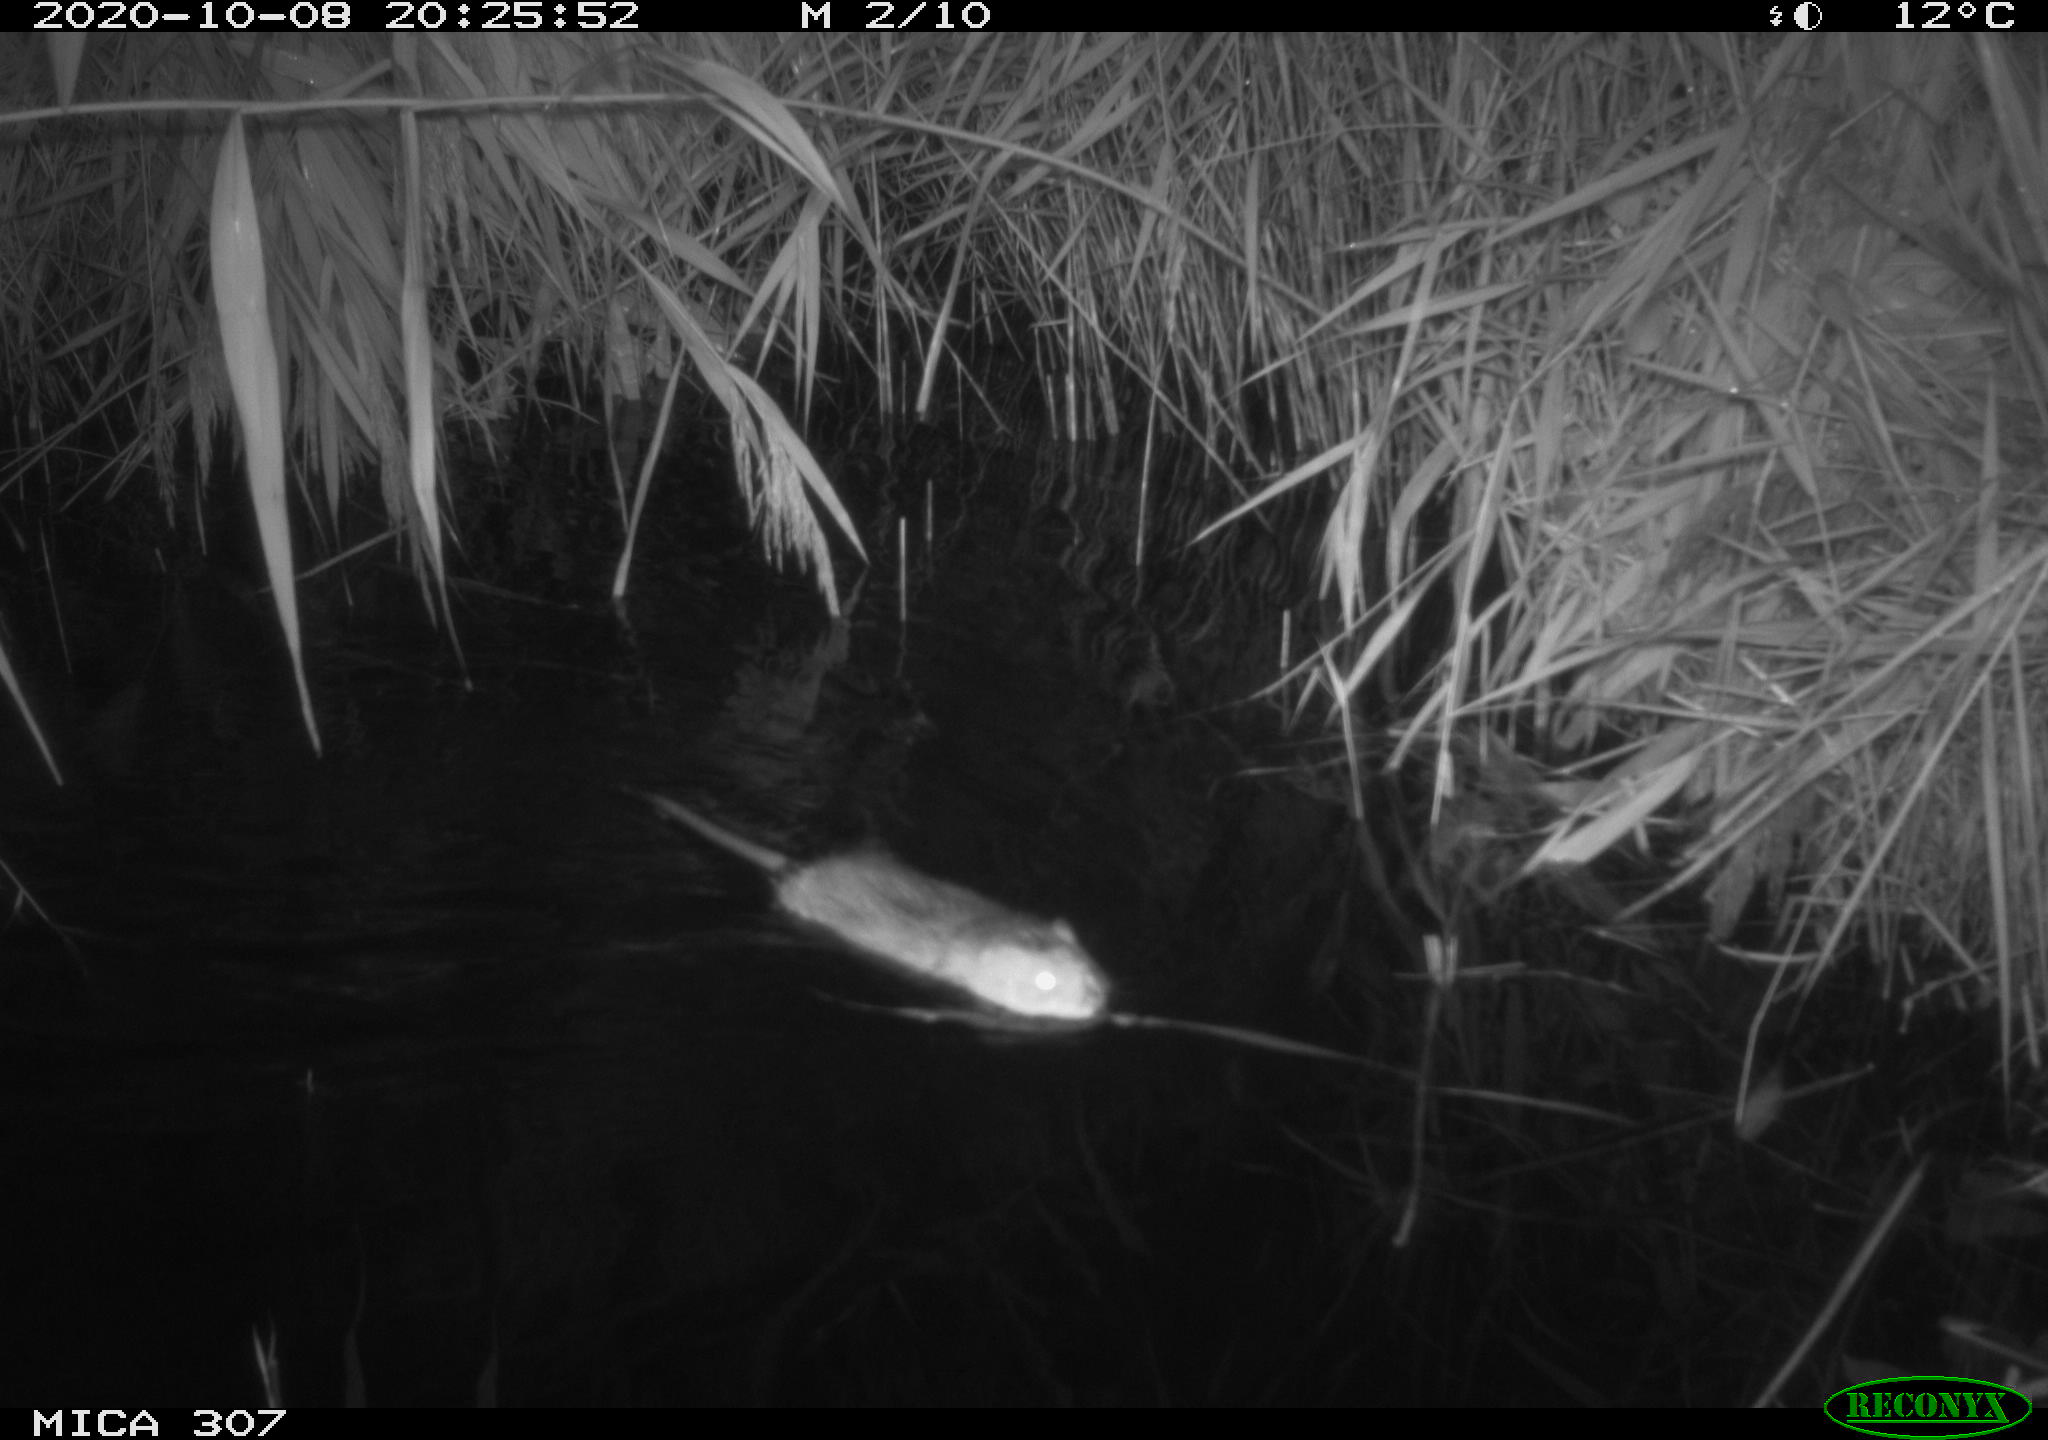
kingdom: Animalia
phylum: Chordata
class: Mammalia
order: Rodentia
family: Cricetidae
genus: Ondatra
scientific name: Ondatra zibethicus
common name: Muskrat
